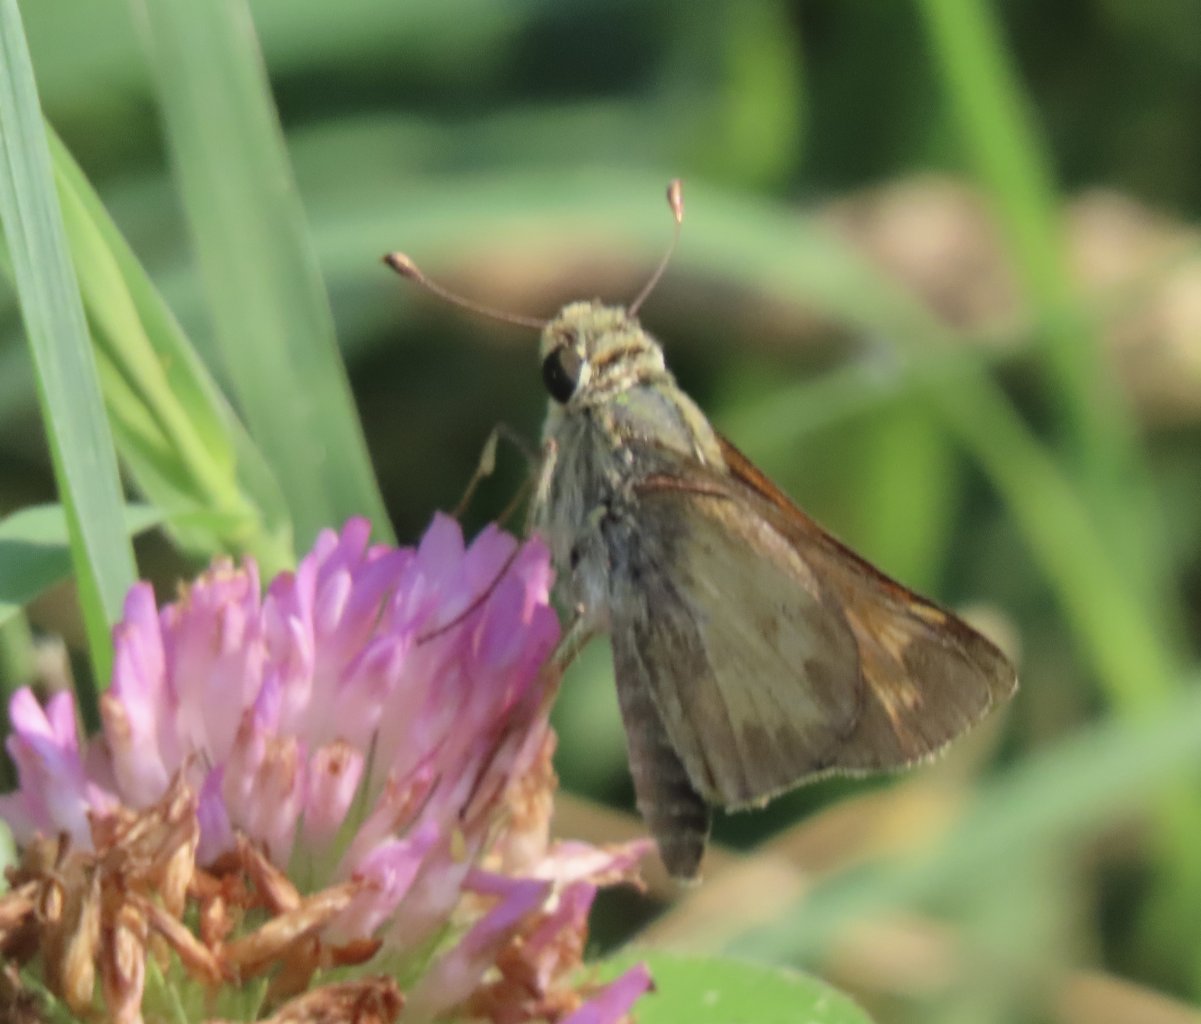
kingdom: Animalia
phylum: Arthropoda
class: Insecta
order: Lepidoptera
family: Hesperiidae
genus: Atalopedes
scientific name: Atalopedes campestris
